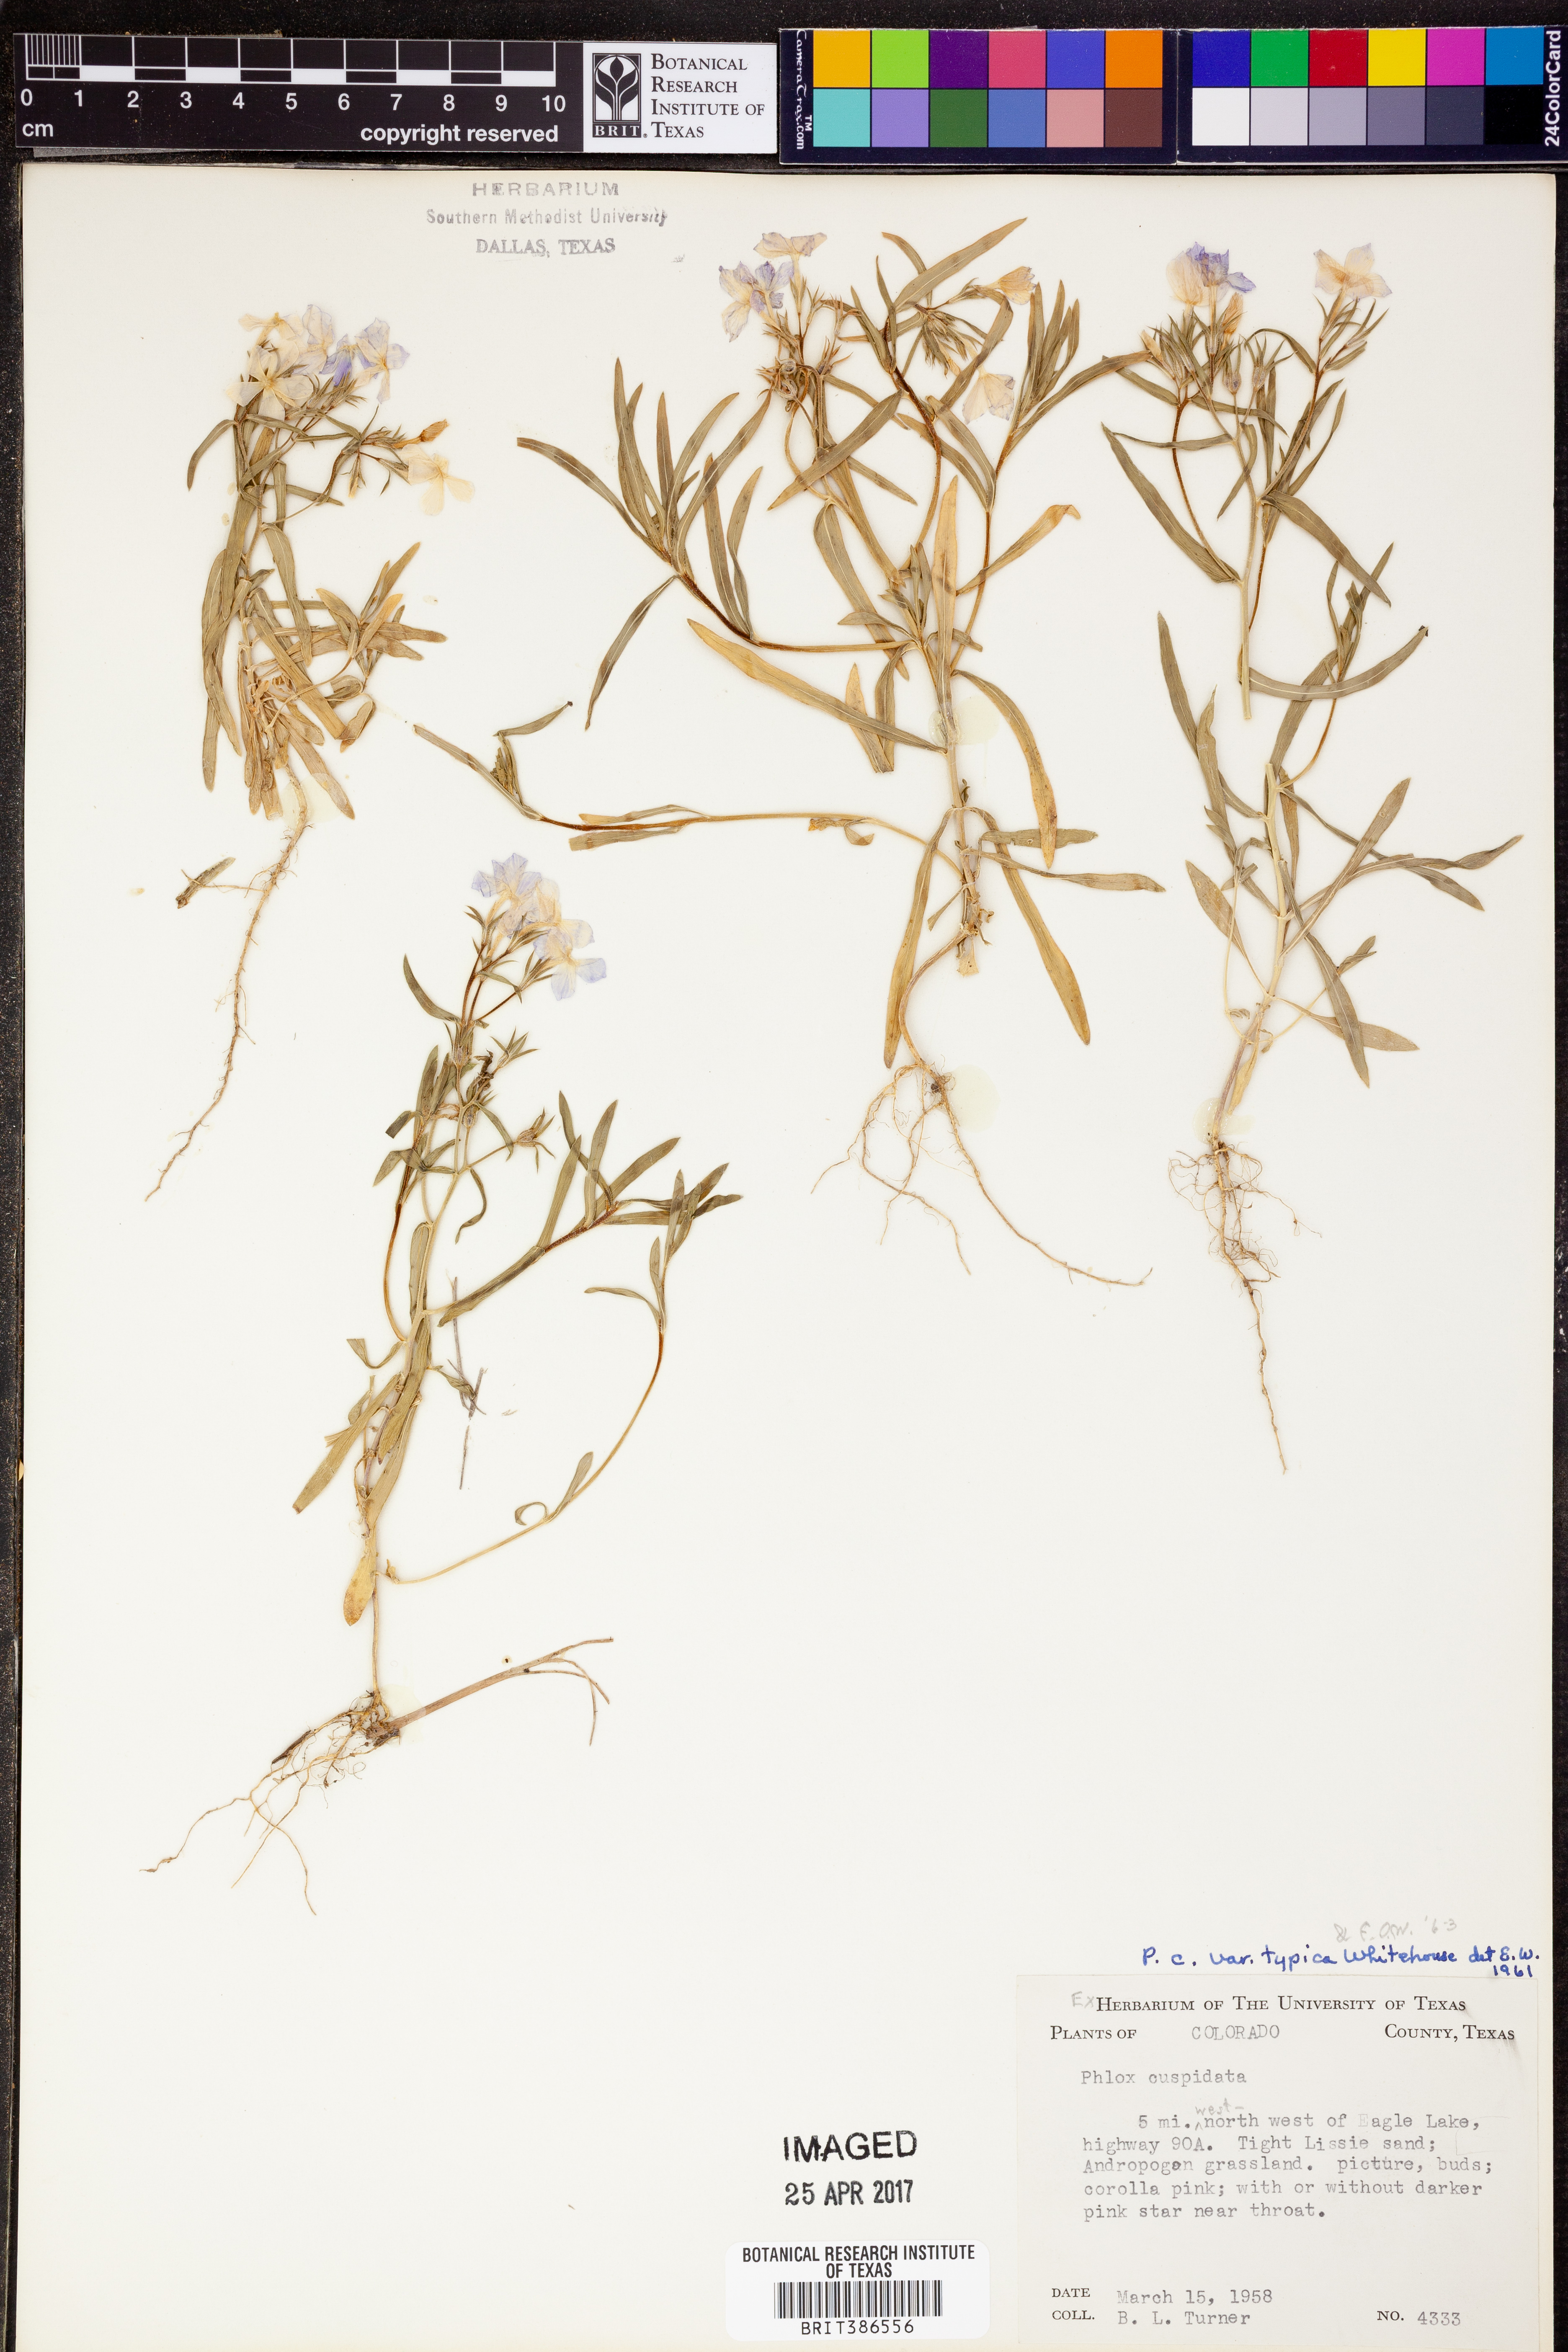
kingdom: Plantae
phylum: Tracheophyta
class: Magnoliopsida
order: Ericales
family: Polemoniaceae
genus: Phlox
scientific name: Phlox cuspidata
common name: Pointed phlox
